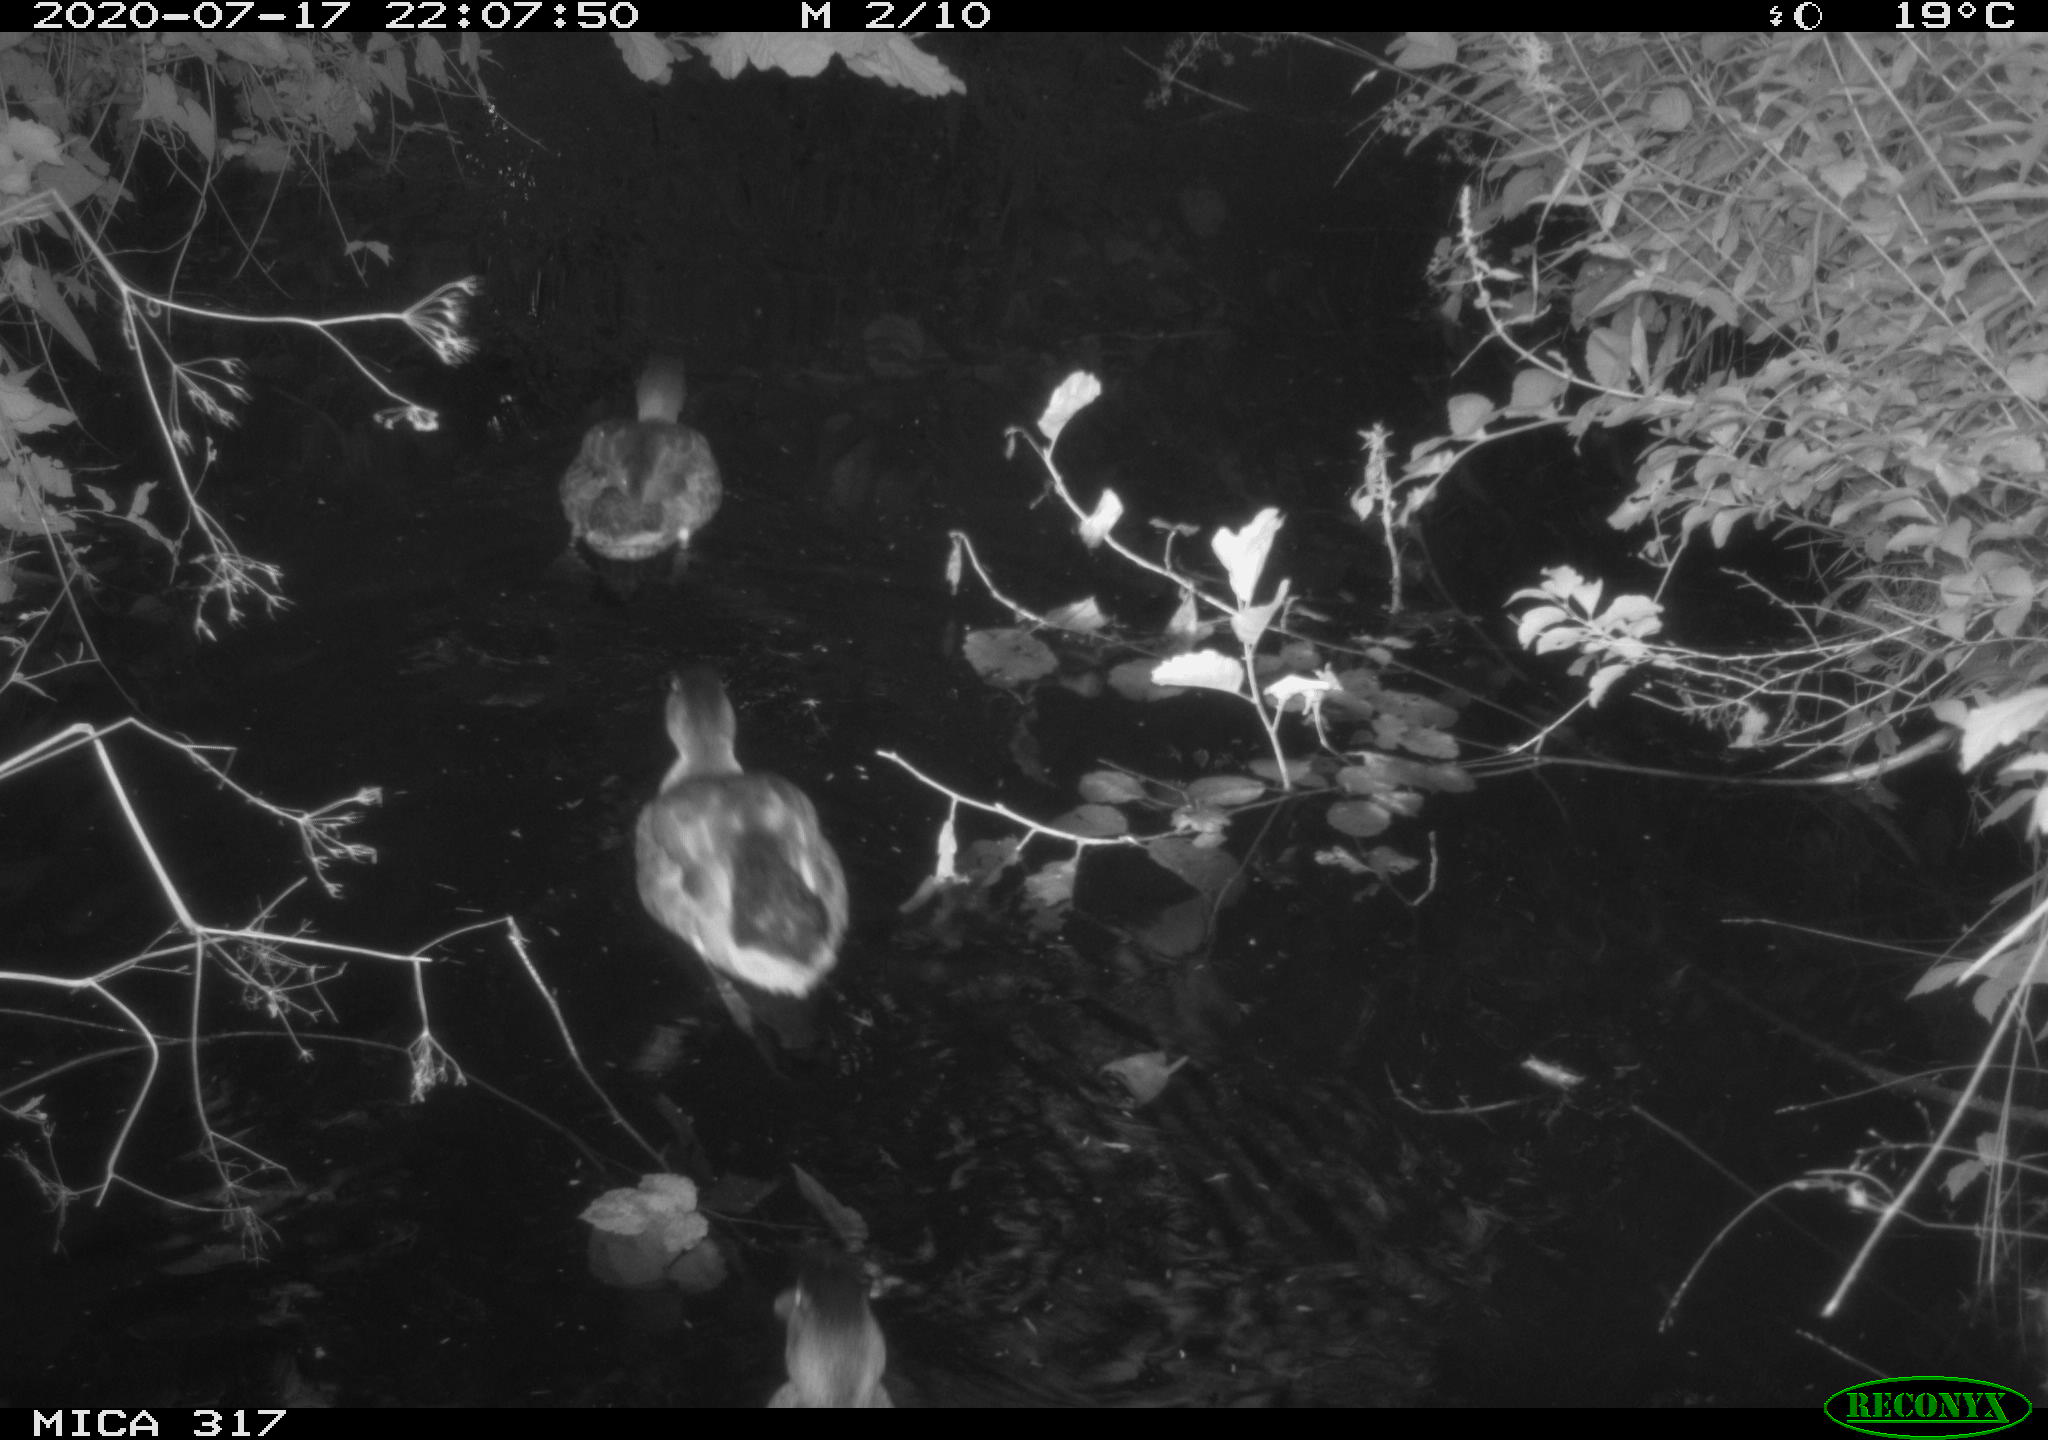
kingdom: Animalia
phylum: Chordata
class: Aves
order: Anseriformes
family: Anatidae
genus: Anas
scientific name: Anas platyrhynchos
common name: Mallard
